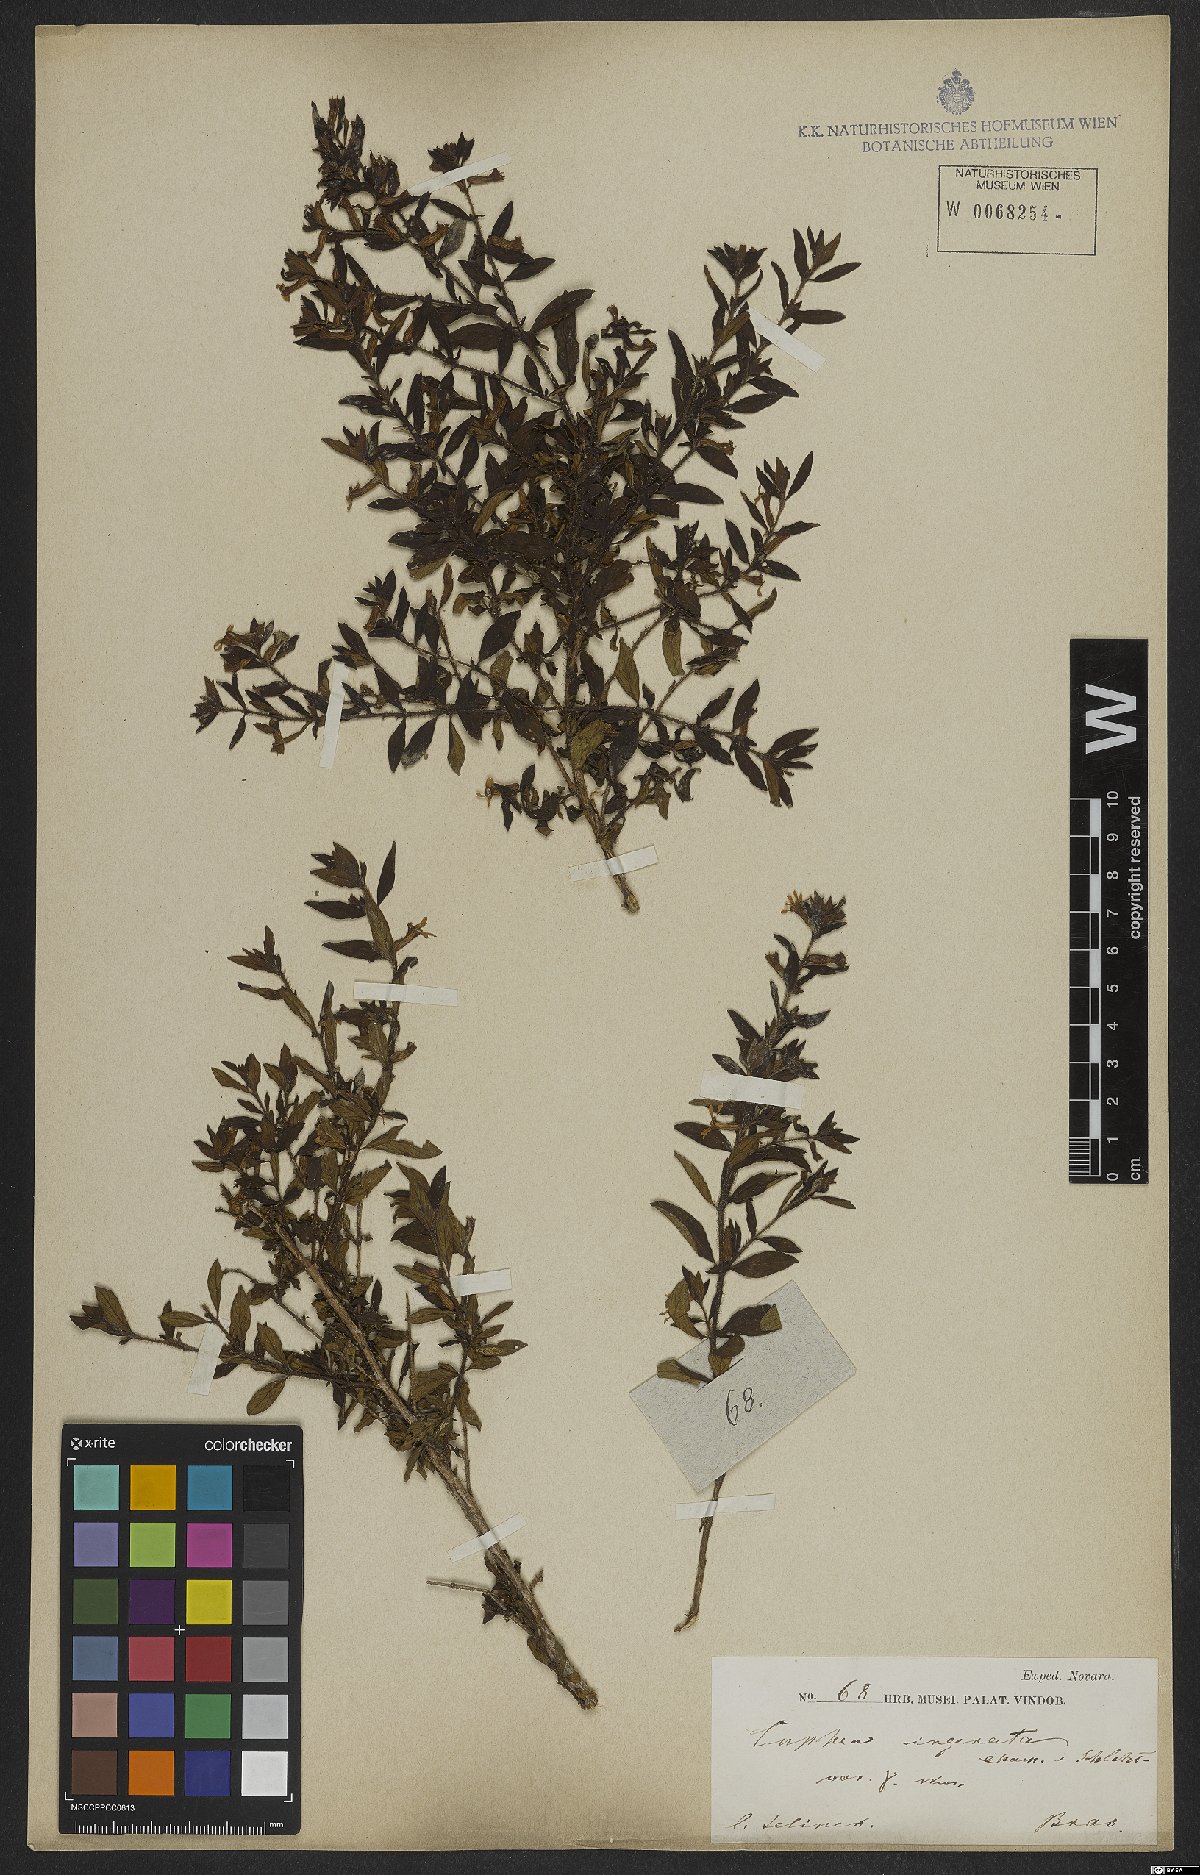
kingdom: Plantae
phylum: Tracheophyta
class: Magnoliopsida
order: Myrtales
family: Lythraceae
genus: Cuphea
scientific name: Cuphea ingrata
